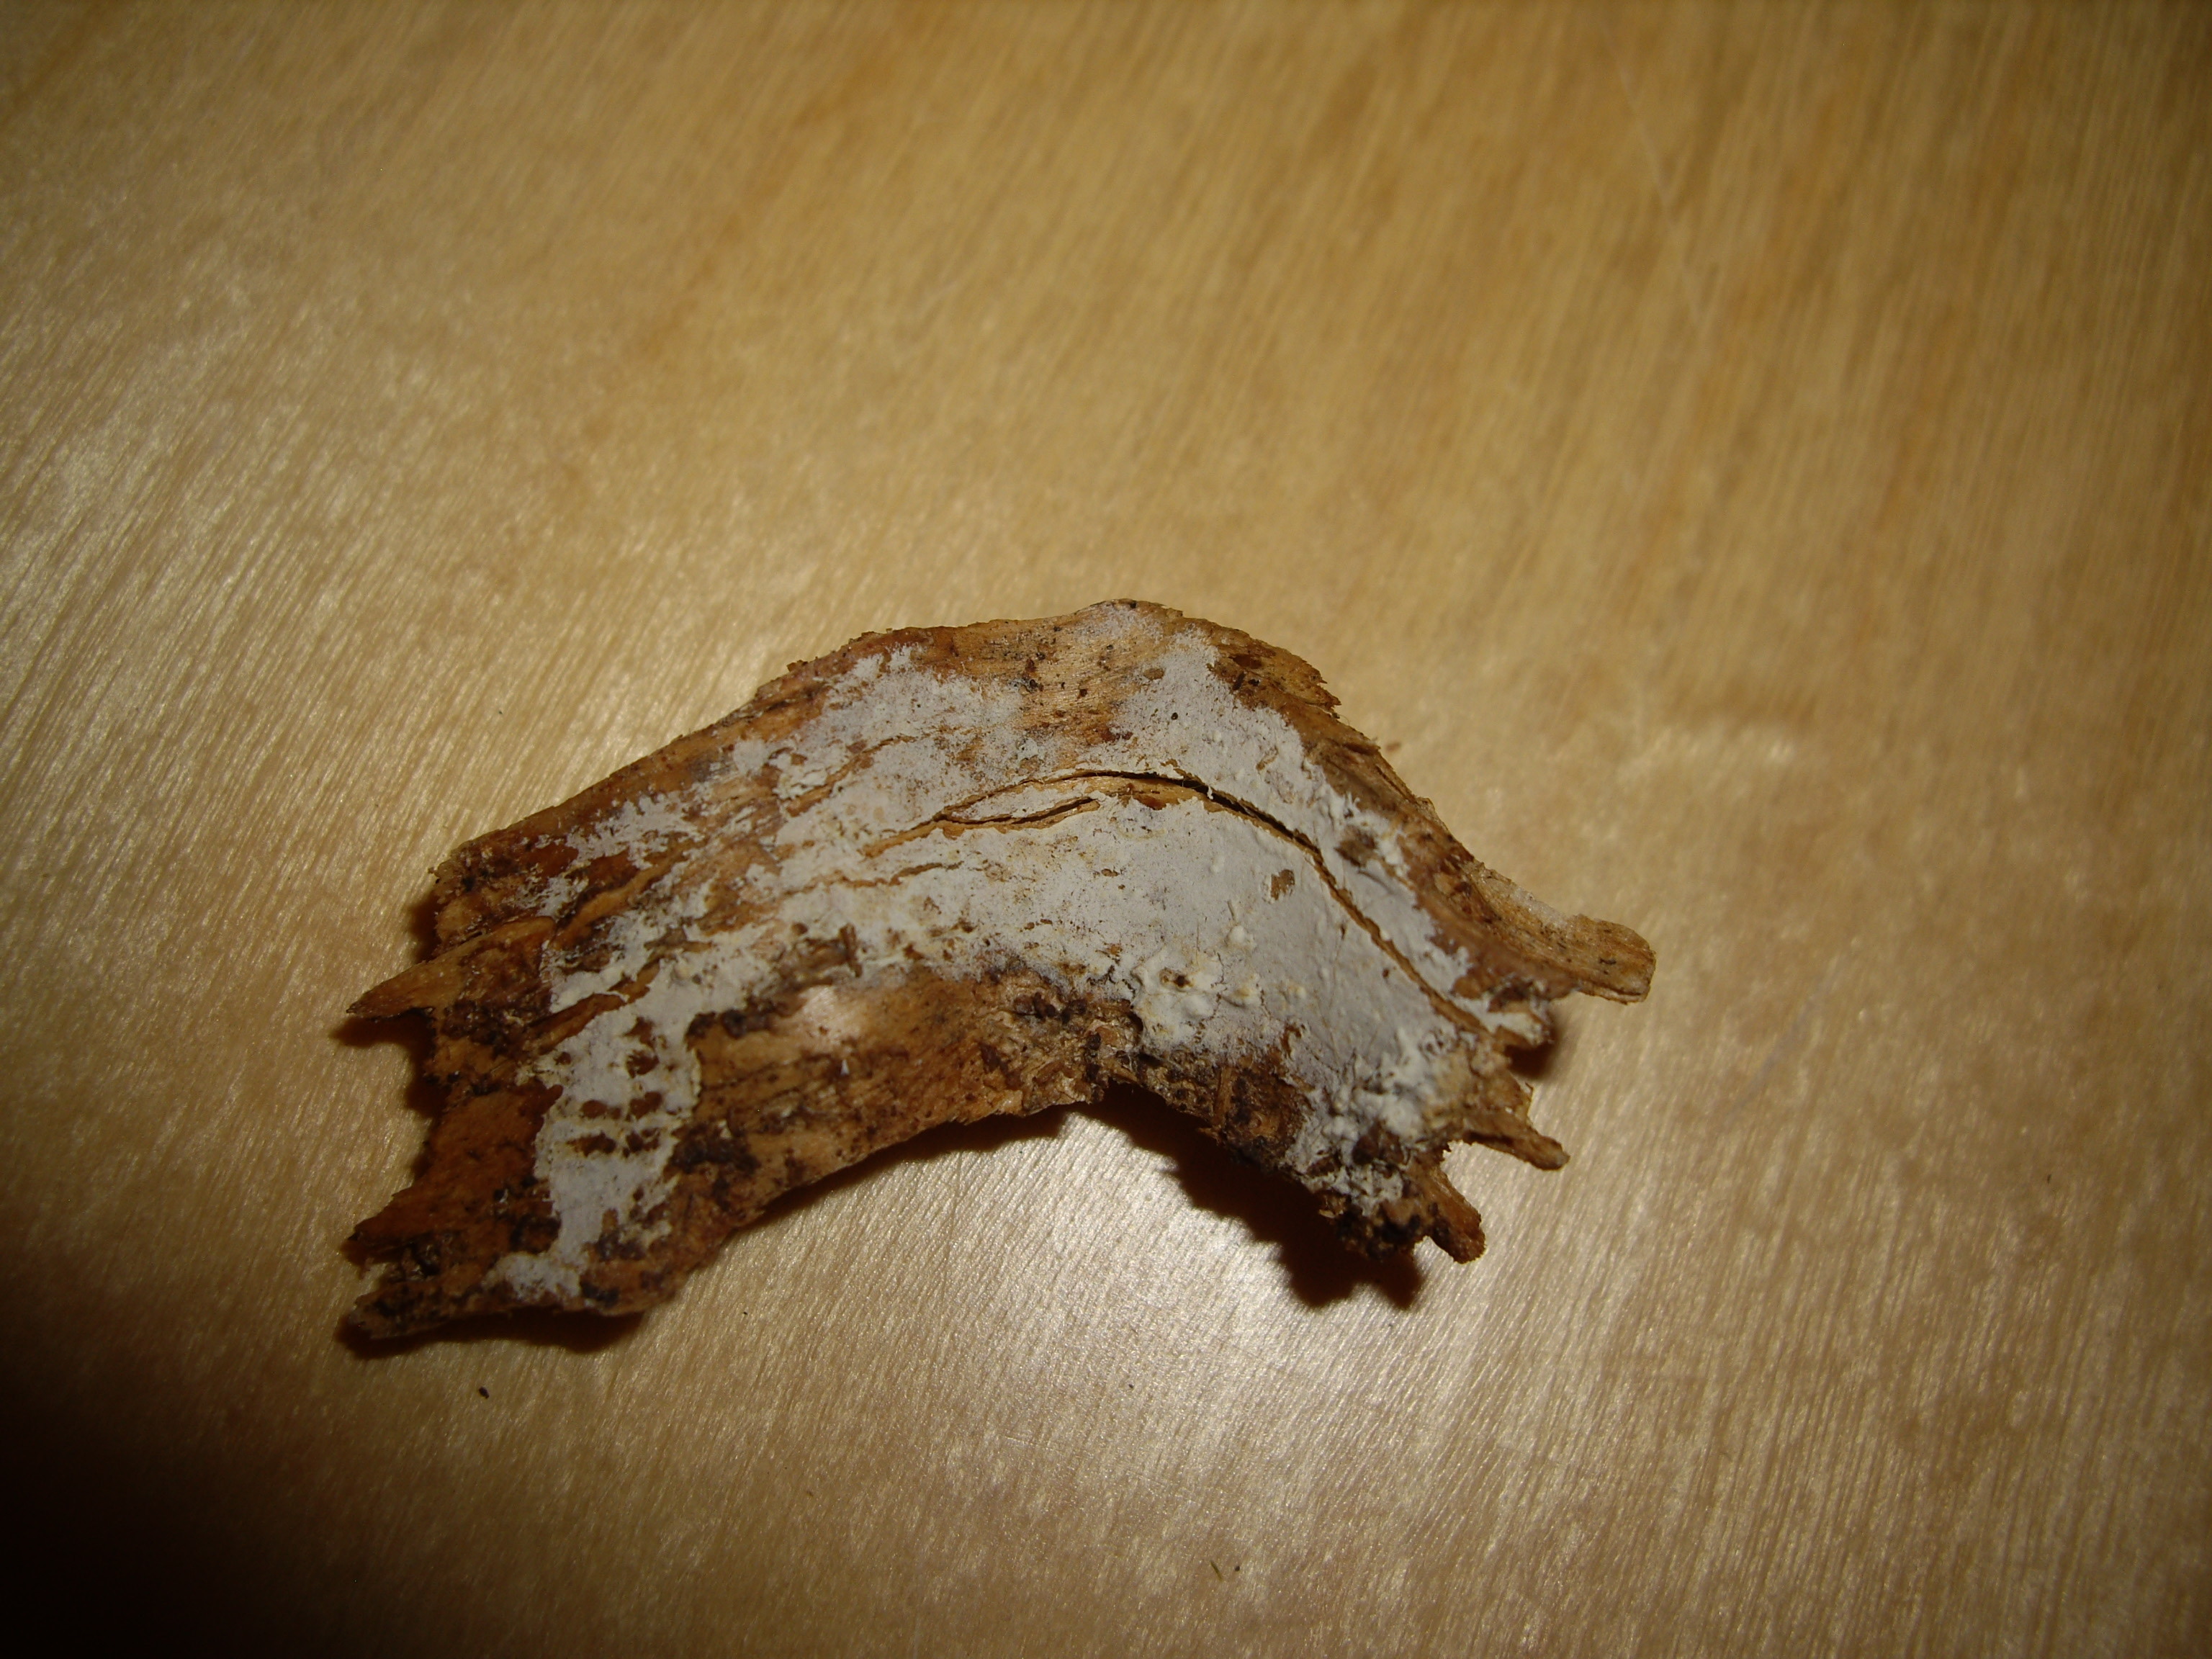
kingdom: Fungi
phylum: Basidiomycota
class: Agaricomycetes
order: Cantharellales
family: Hydnaceae
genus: Sistotrema
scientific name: Sistotrema sernanderi
